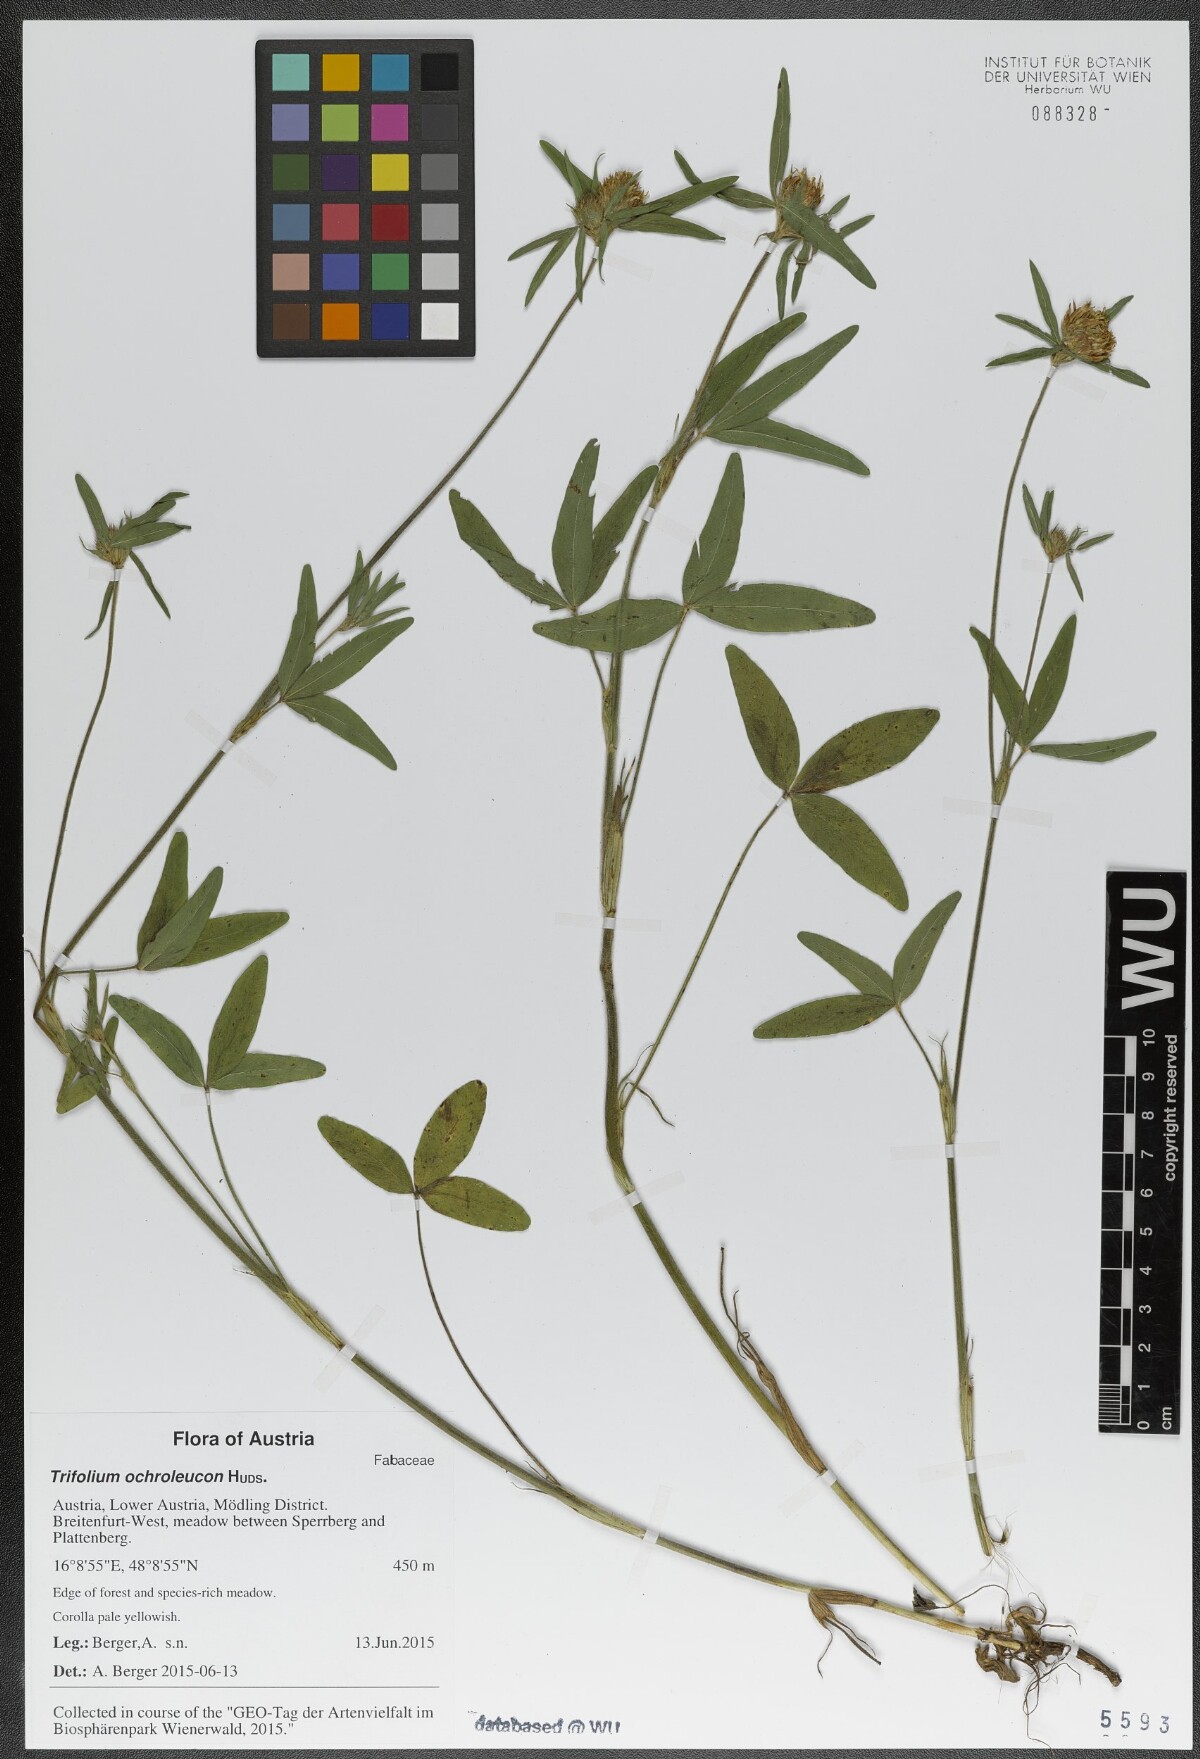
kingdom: Plantae
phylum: Tracheophyta
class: Magnoliopsida
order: Fabales
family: Fabaceae
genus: Trifolium
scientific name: Trifolium ochroleucon
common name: Sulphur clover
